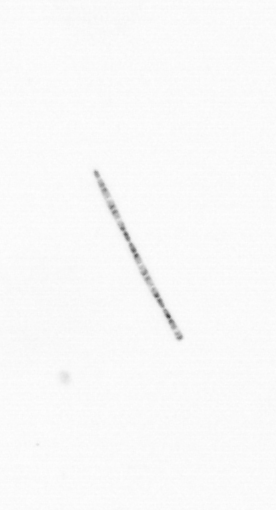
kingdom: Chromista
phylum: Ochrophyta
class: Bacillariophyceae
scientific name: Bacillariophyceae
